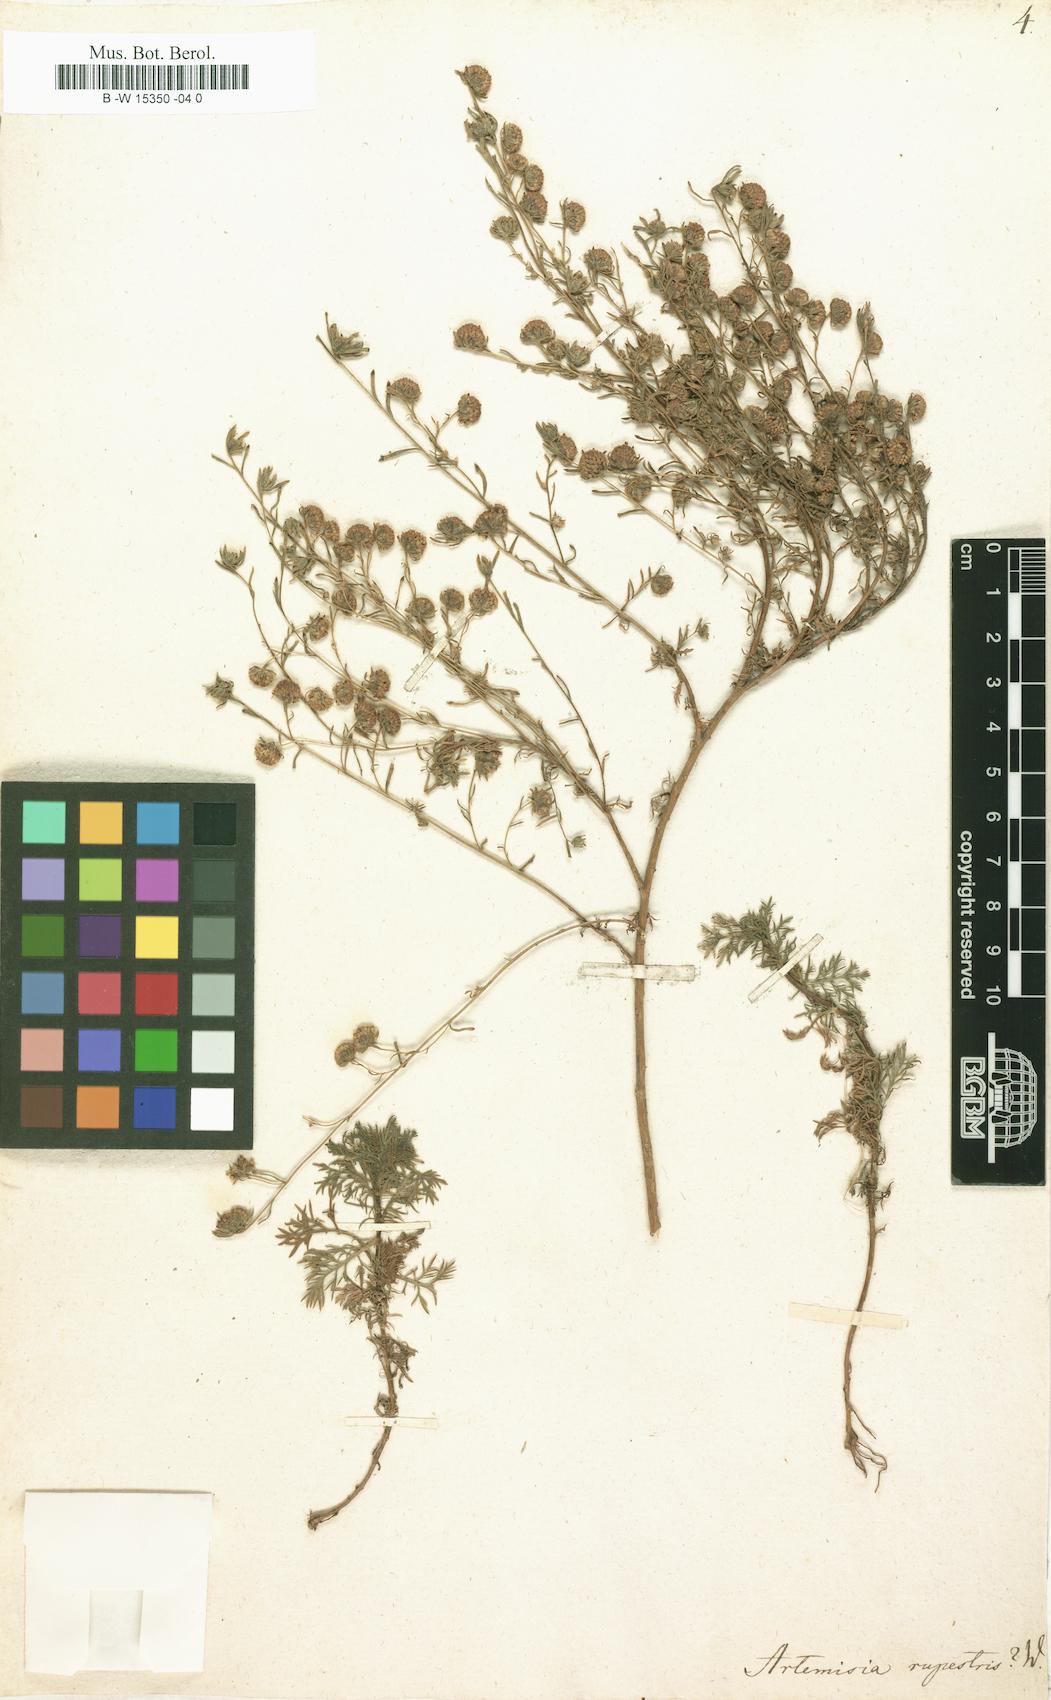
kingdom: Plantae
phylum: Tracheophyta
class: Magnoliopsida
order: Asterales
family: Asteraceae
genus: Artemisia
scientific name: Artemisia rupestris
